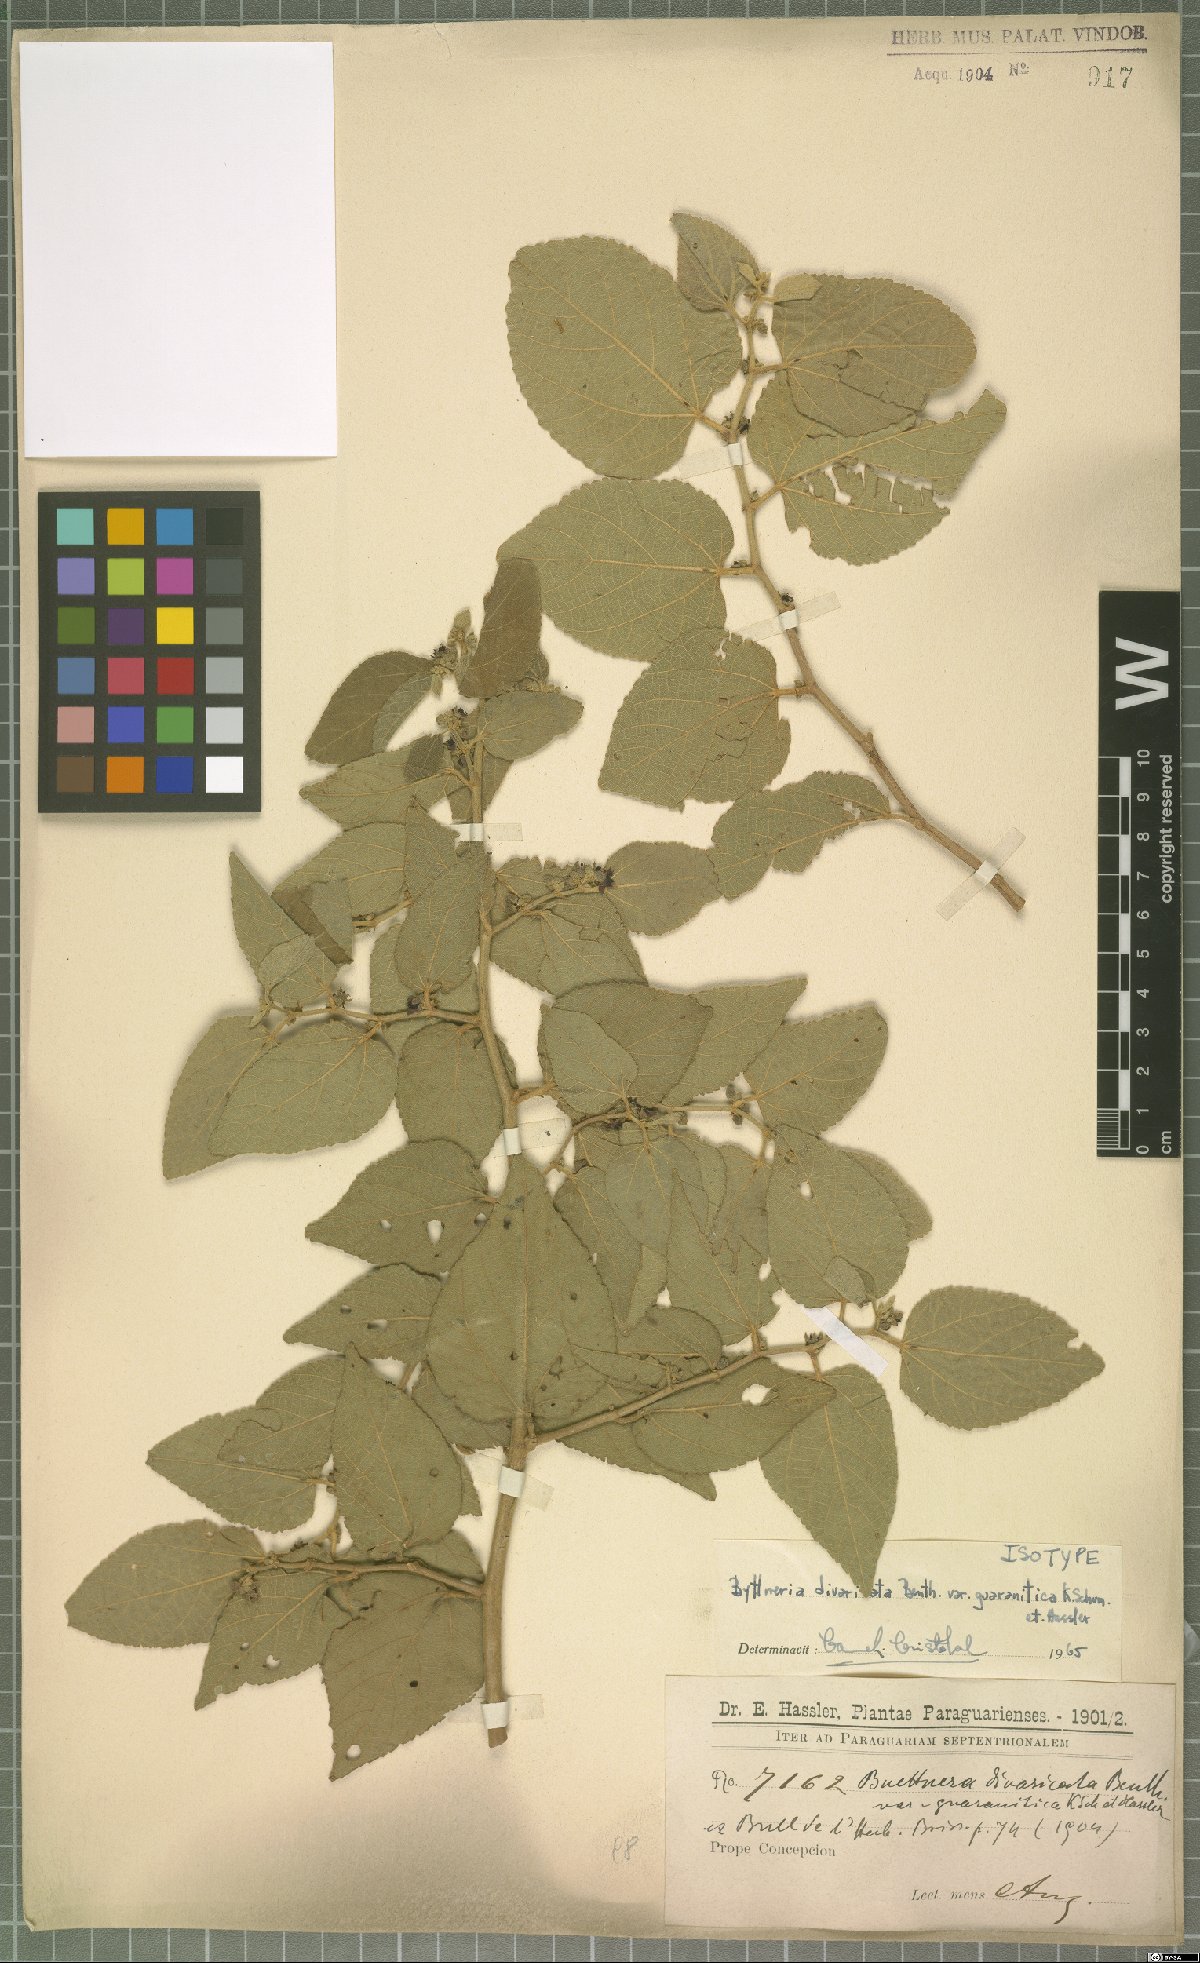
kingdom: Plantae
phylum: Tracheophyta
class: Magnoliopsida
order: Malvales
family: Malvaceae
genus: Byttneria
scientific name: Byttneria divaricata
